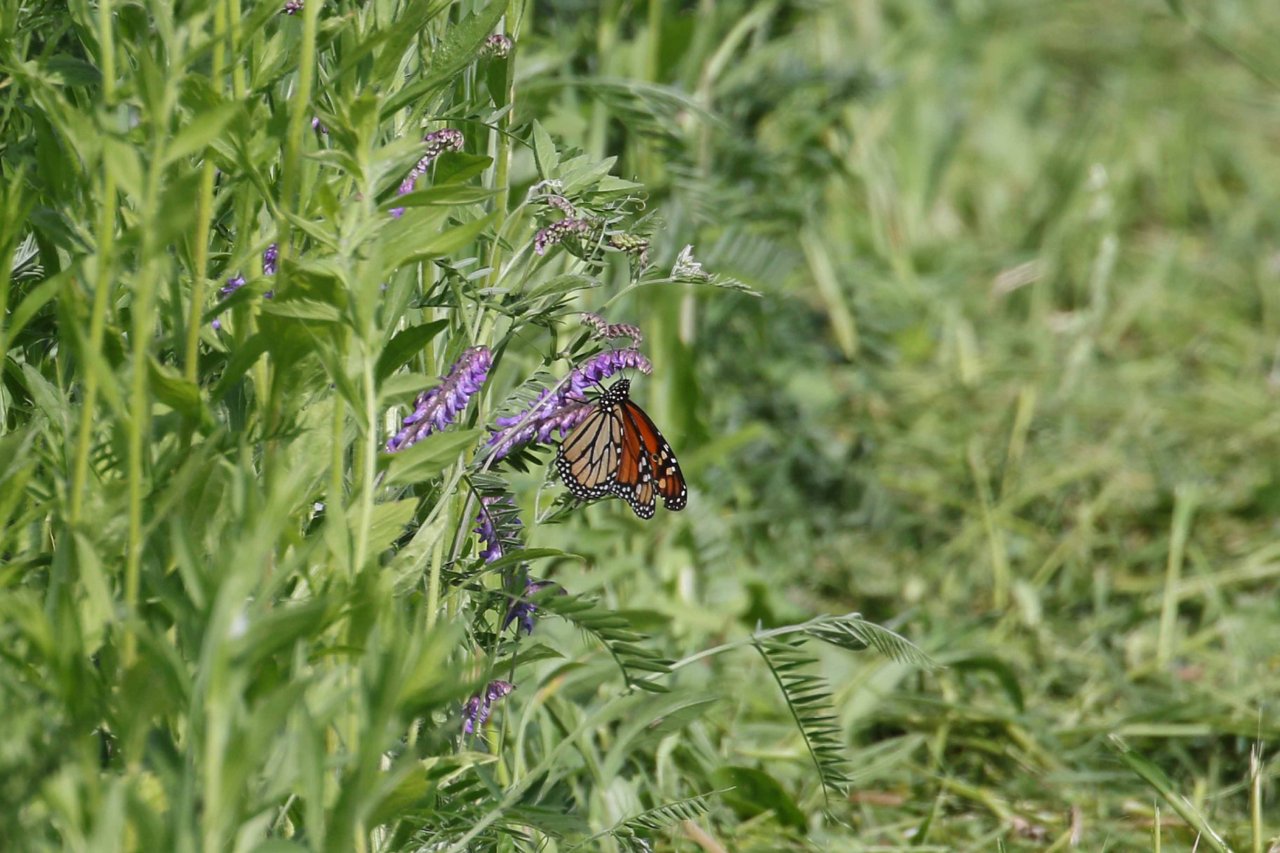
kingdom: Animalia
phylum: Arthropoda
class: Insecta
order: Lepidoptera
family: Nymphalidae
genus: Danaus
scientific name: Danaus plexippus
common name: Monarch
